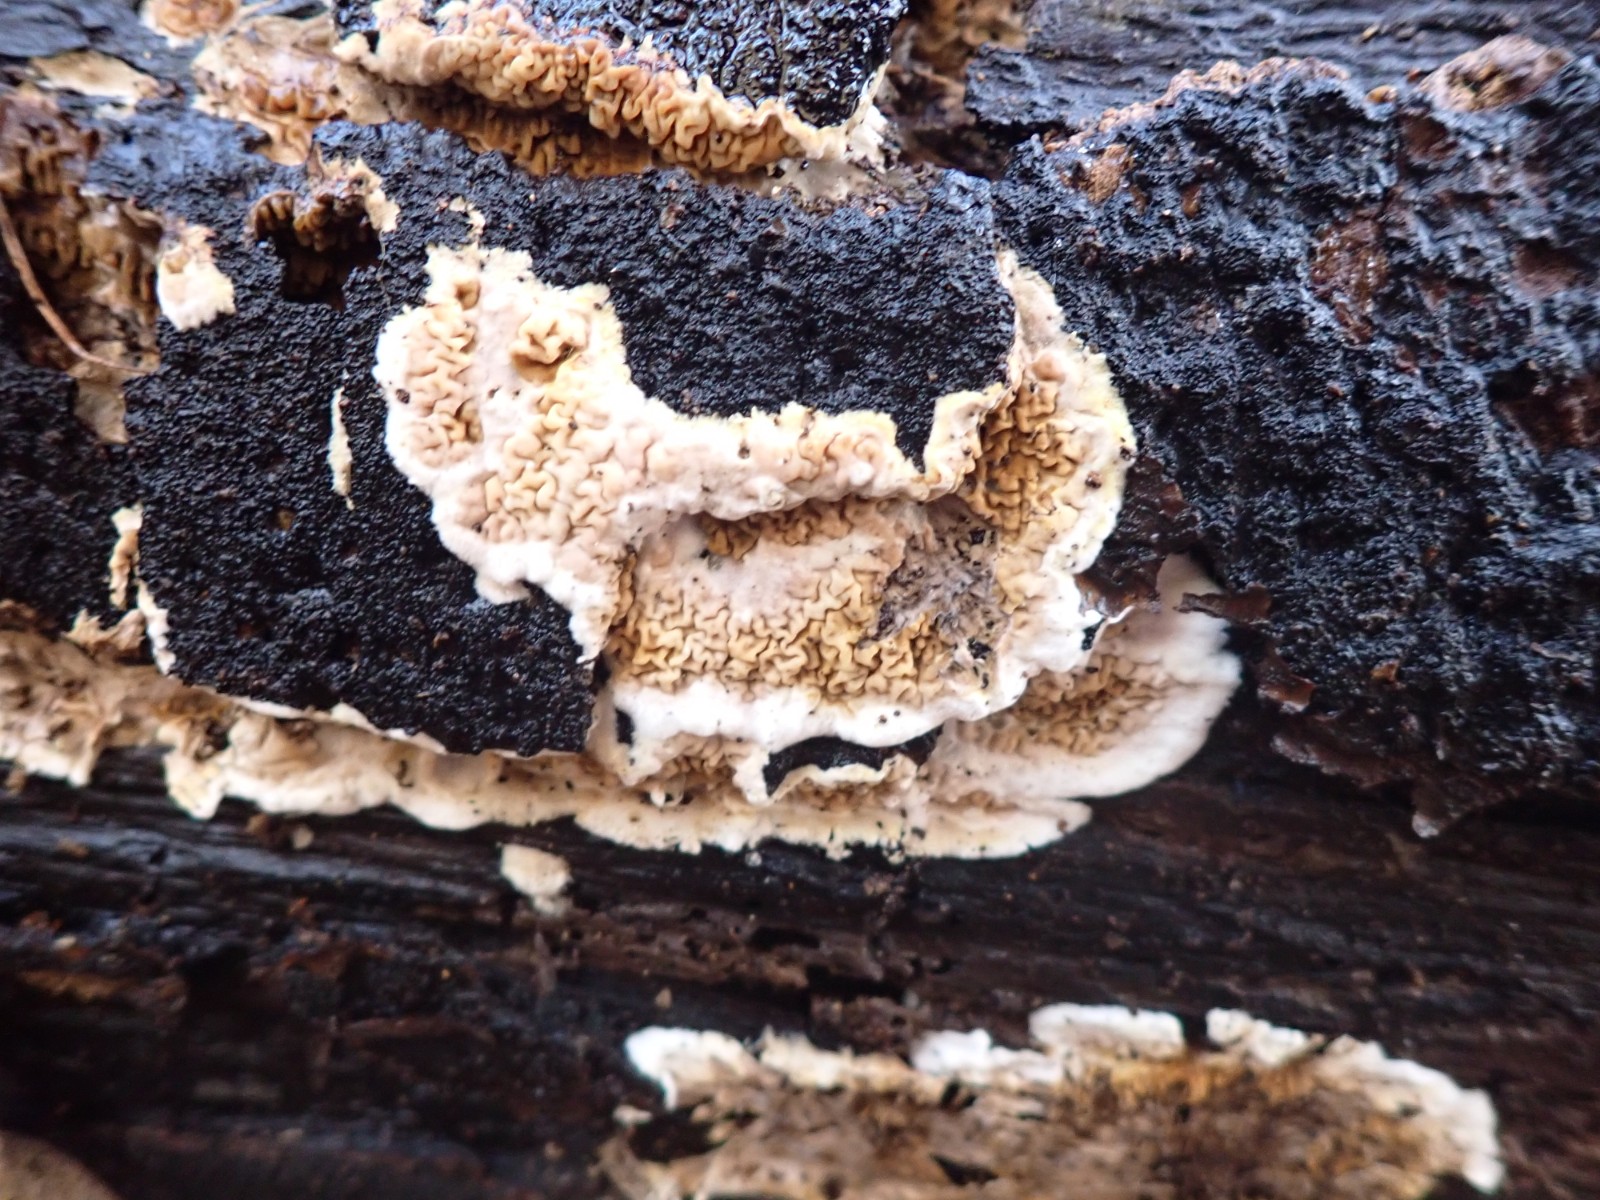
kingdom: Fungi
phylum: Basidiomycota
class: Agaricomycetes
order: Boletales
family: Serpulaceae
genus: Serpula
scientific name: Serpula
